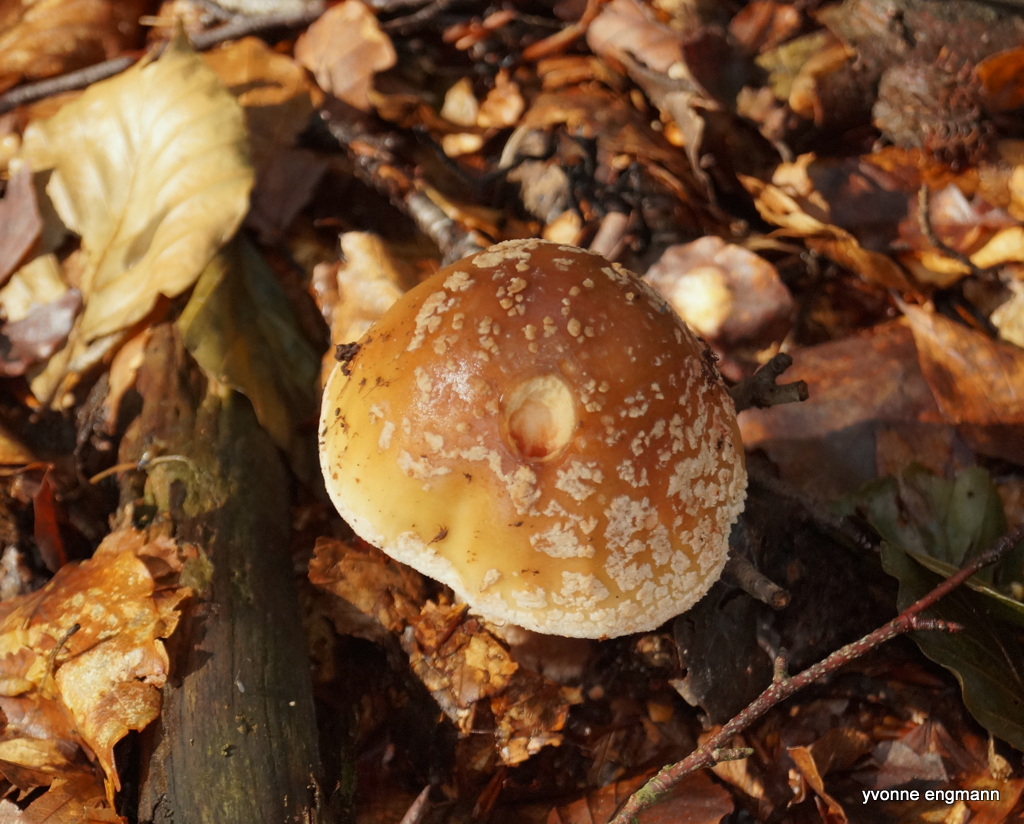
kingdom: Fungi
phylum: Basidiomycota
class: Agaricomycetes
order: Agaricales
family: Amanitaceae
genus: Amanita
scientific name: Amanita rubescens
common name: rødmende fluesvamp
